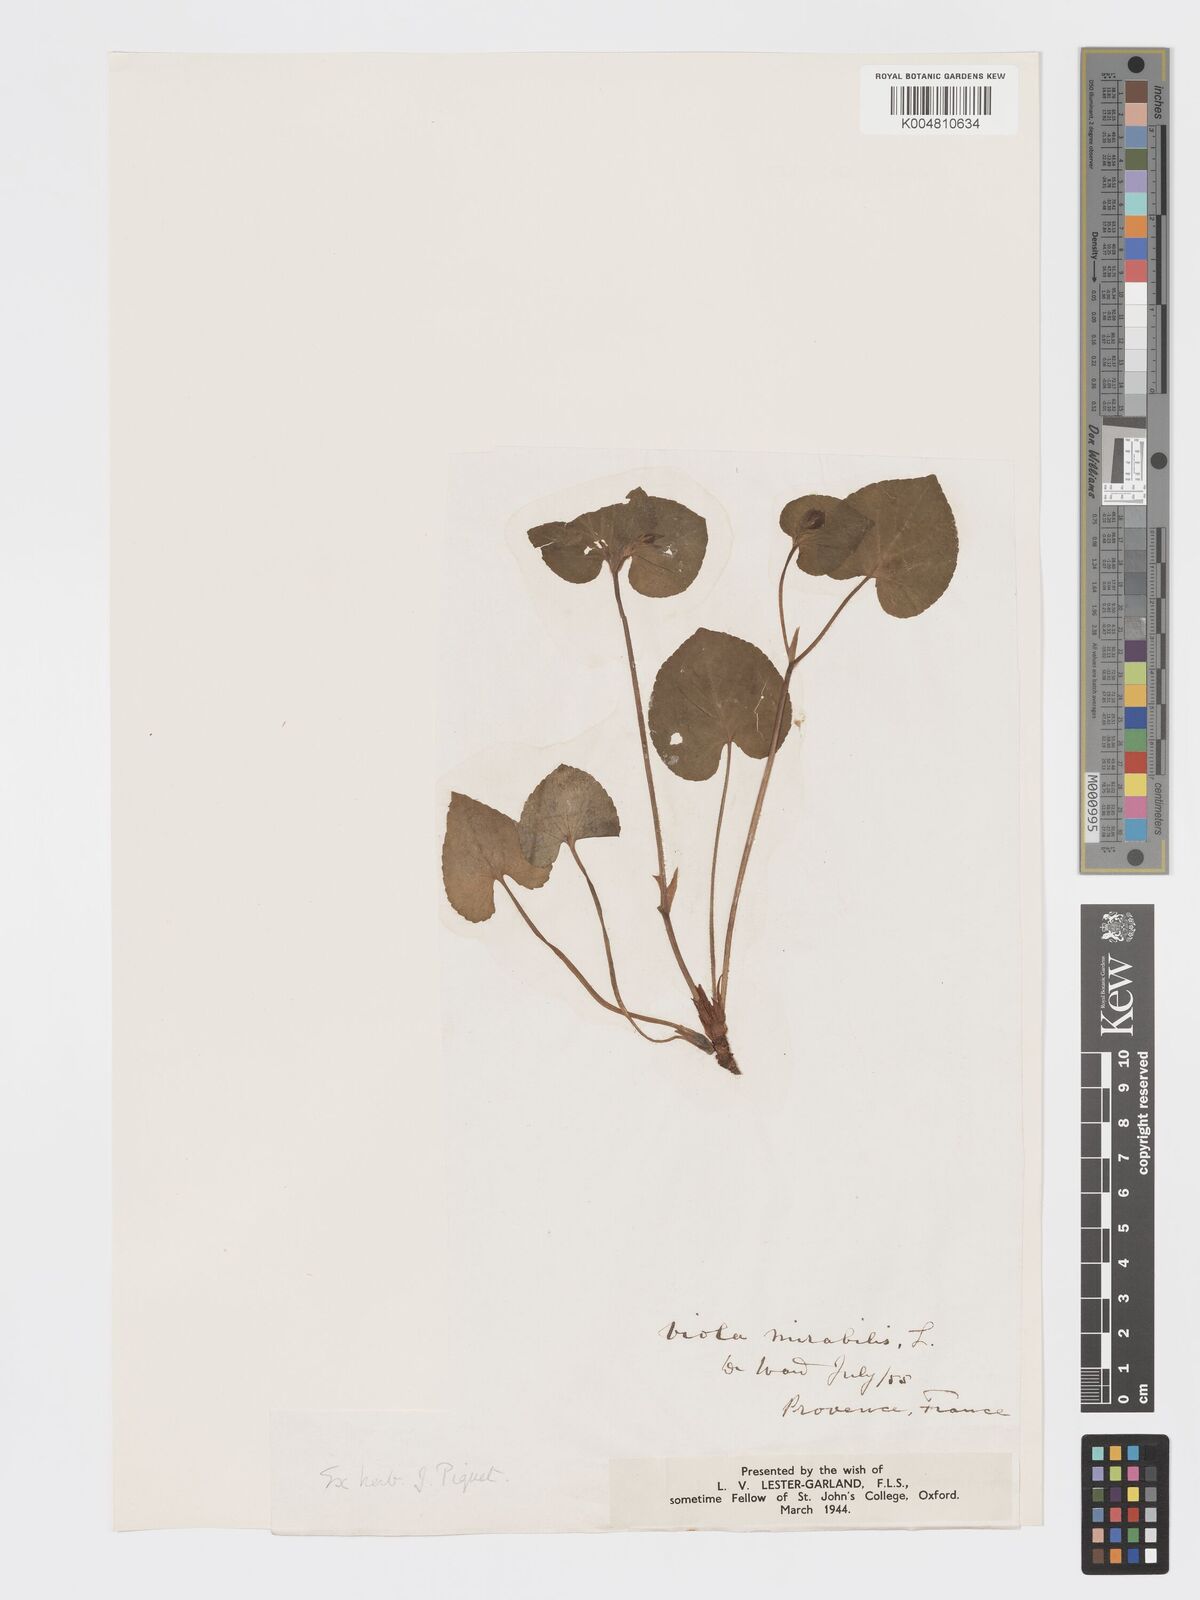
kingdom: Plantae
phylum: Tracheophyta
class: Magnoliopsida
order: Malpighiales
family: Violaceae
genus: Viola
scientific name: Viola mirabilis
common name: Wonder violet
